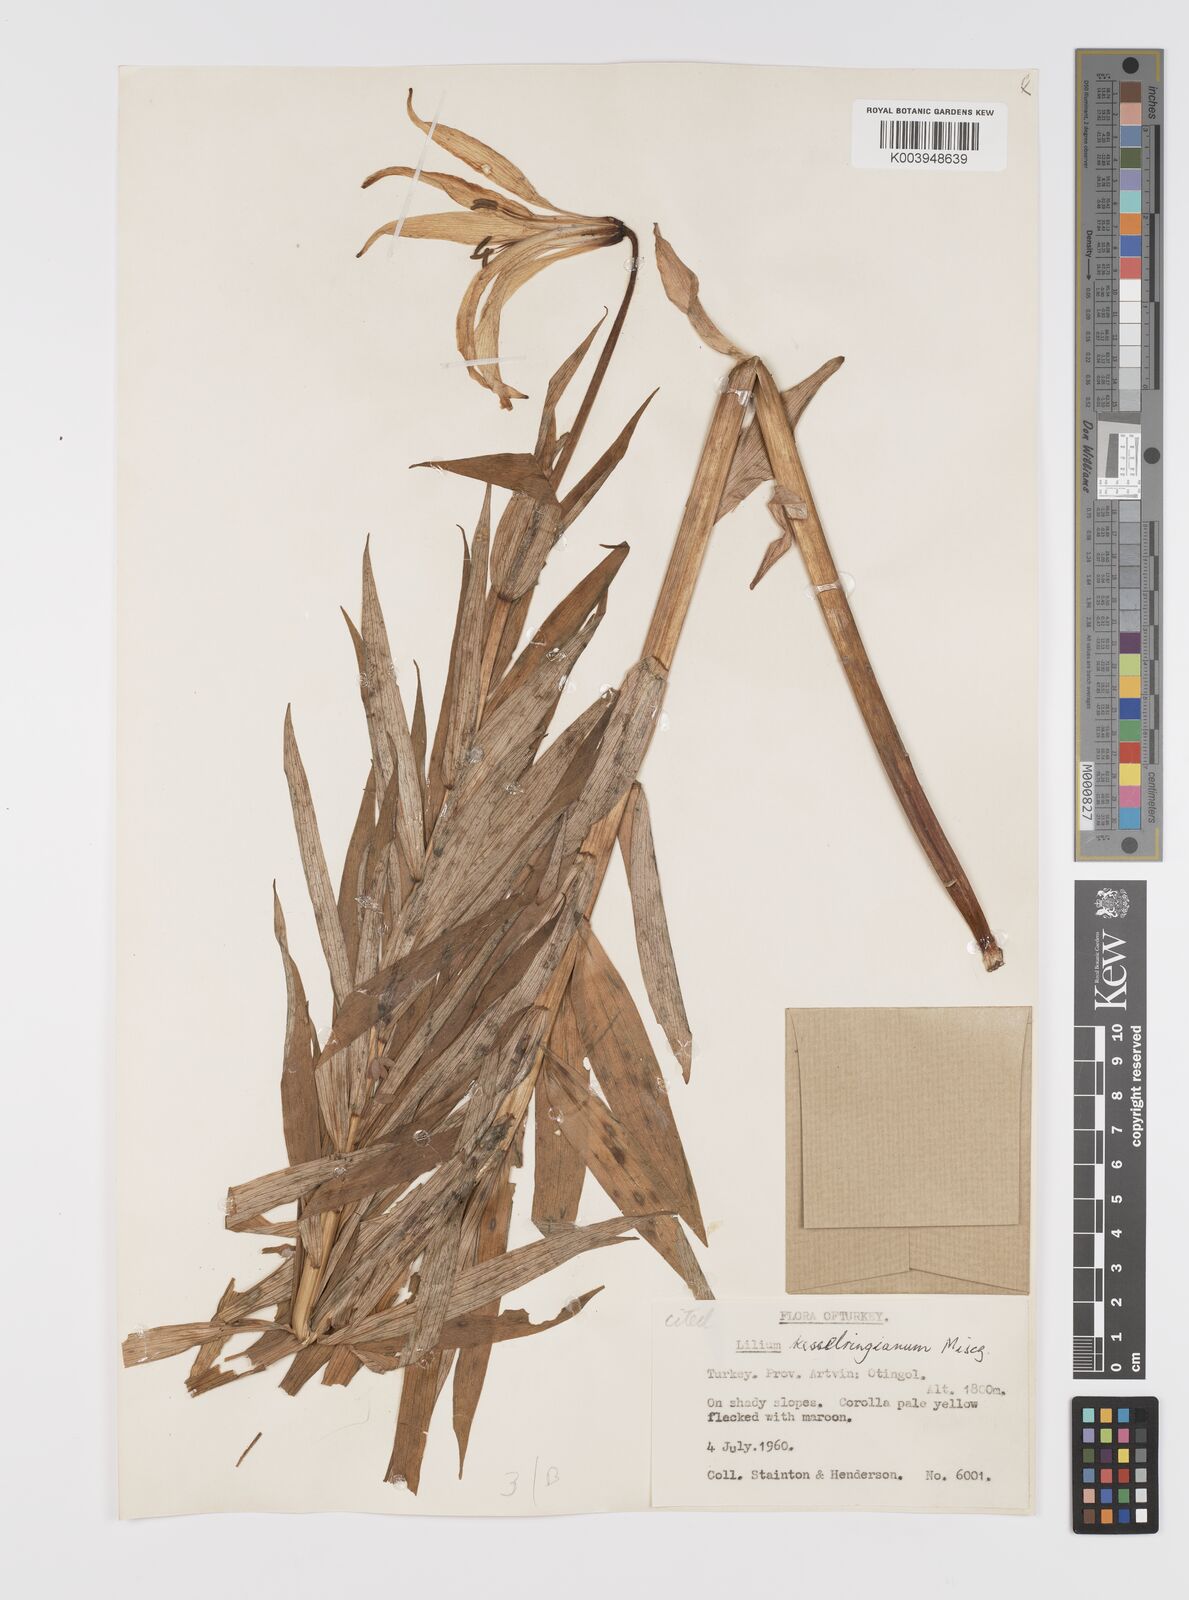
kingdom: Plantae
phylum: Tracheophyta
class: Liliopsida
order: Liliales
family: Liliaceae
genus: Lilium
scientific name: Lilium kesselringianum
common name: Kesselring lily
